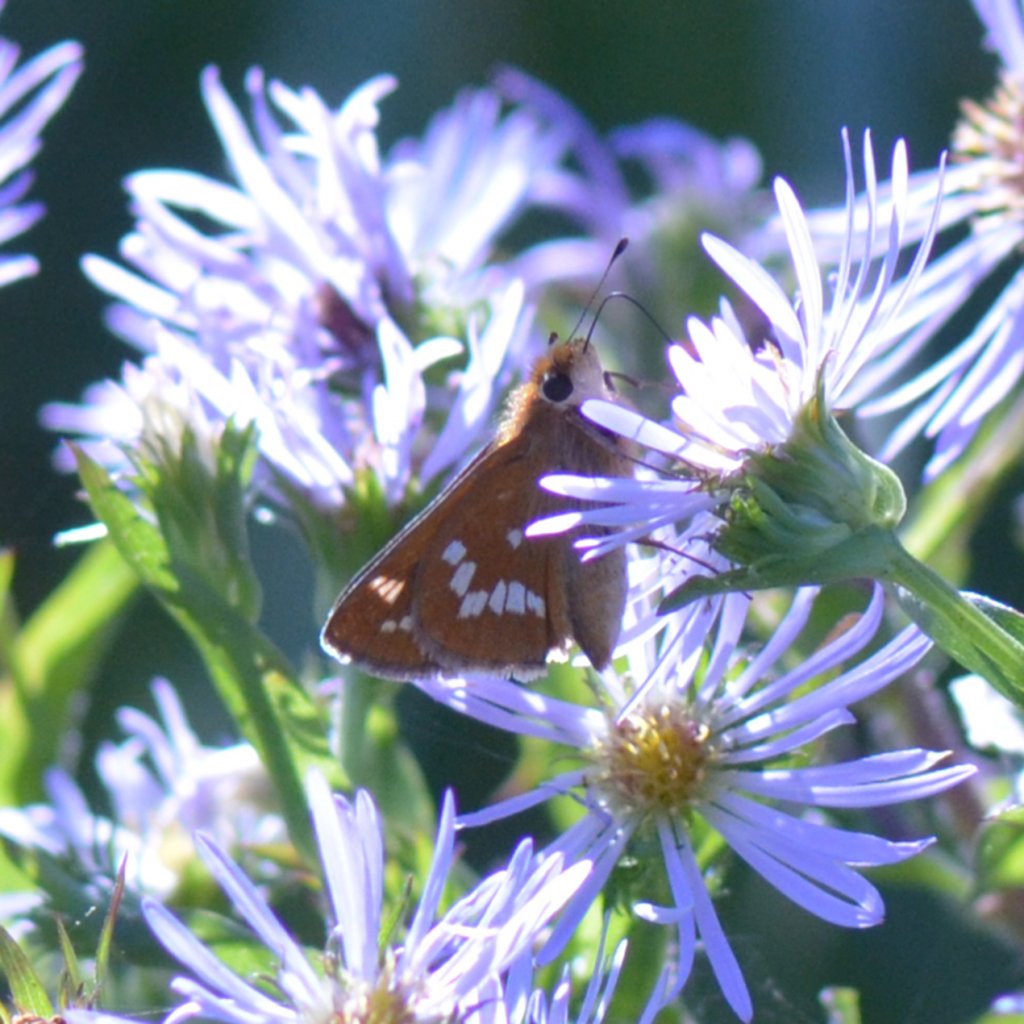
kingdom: Animalia
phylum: Arthropoda
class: Insecta
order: Lepidoptera
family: Hesperiidae
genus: Hesperia
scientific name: Hesperia leonardus
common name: Leonard's Skipper
